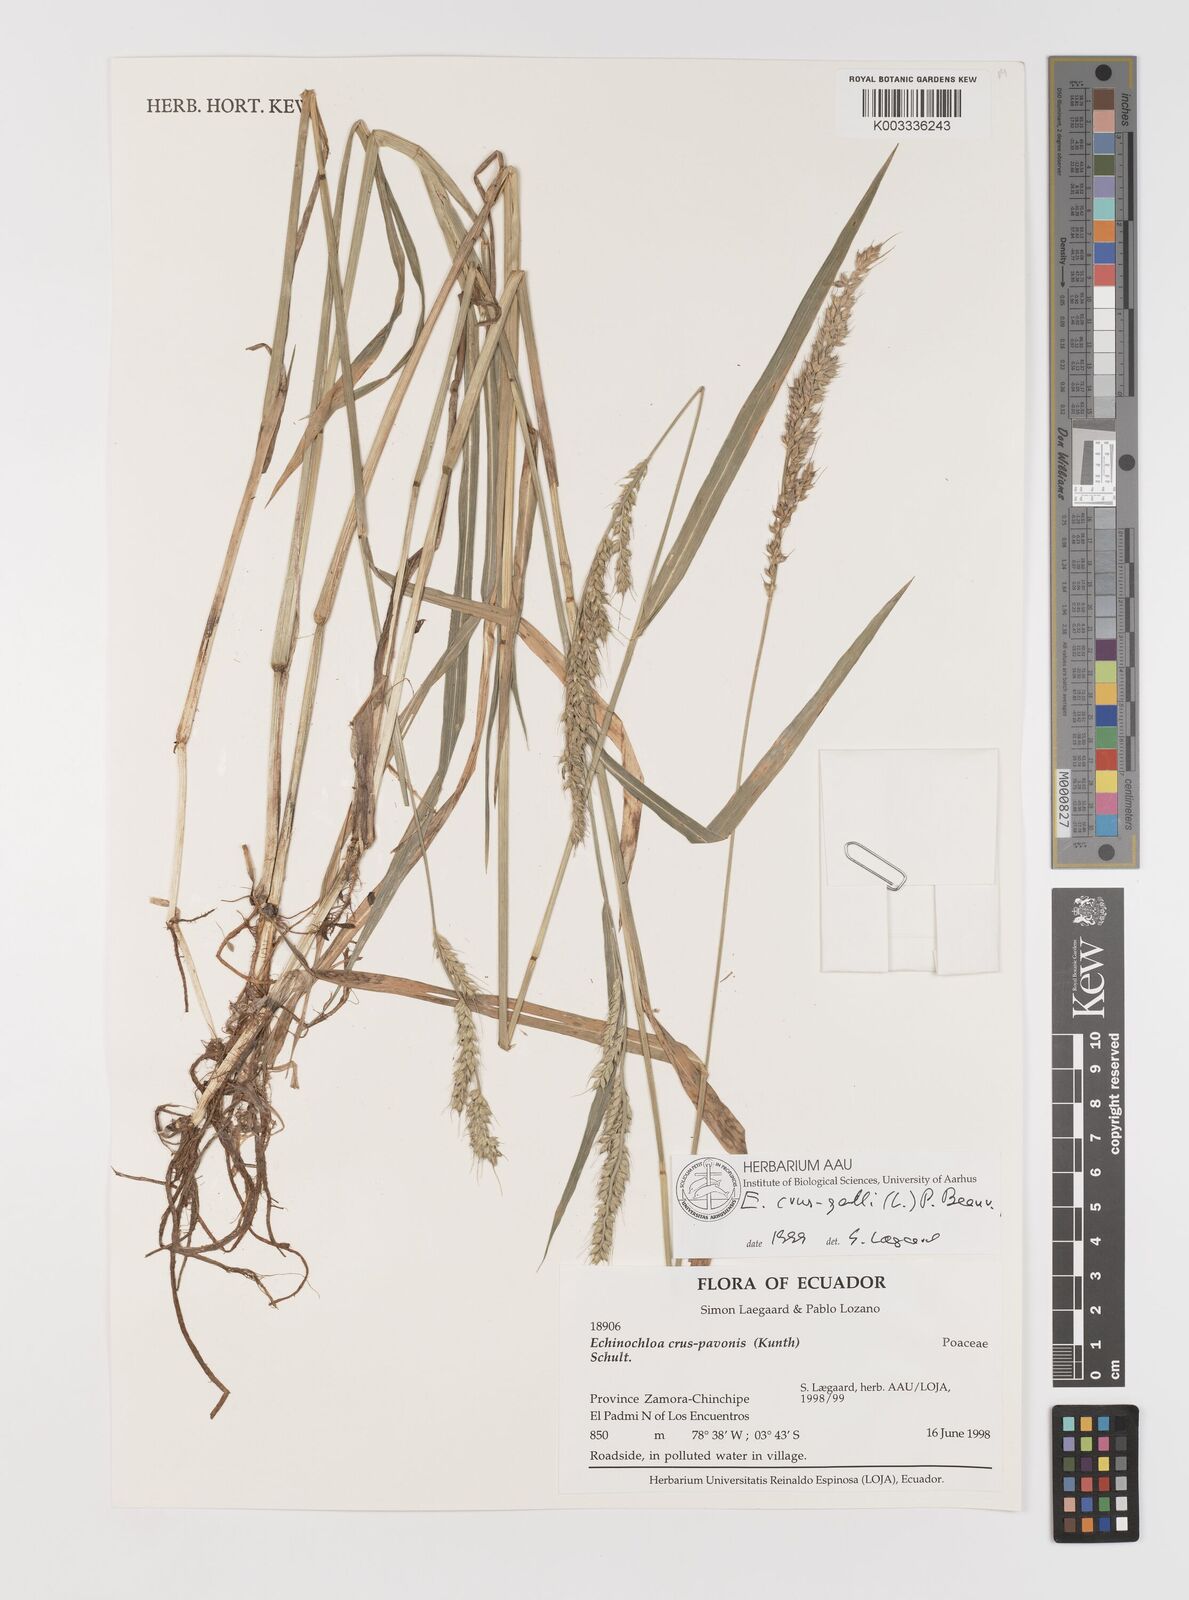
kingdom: Plantae
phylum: Tracheophyta
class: Liliopsida
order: Poales
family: Poaceae
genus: Echinochloa
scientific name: Echinochloa crus-galli
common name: Cockspur
